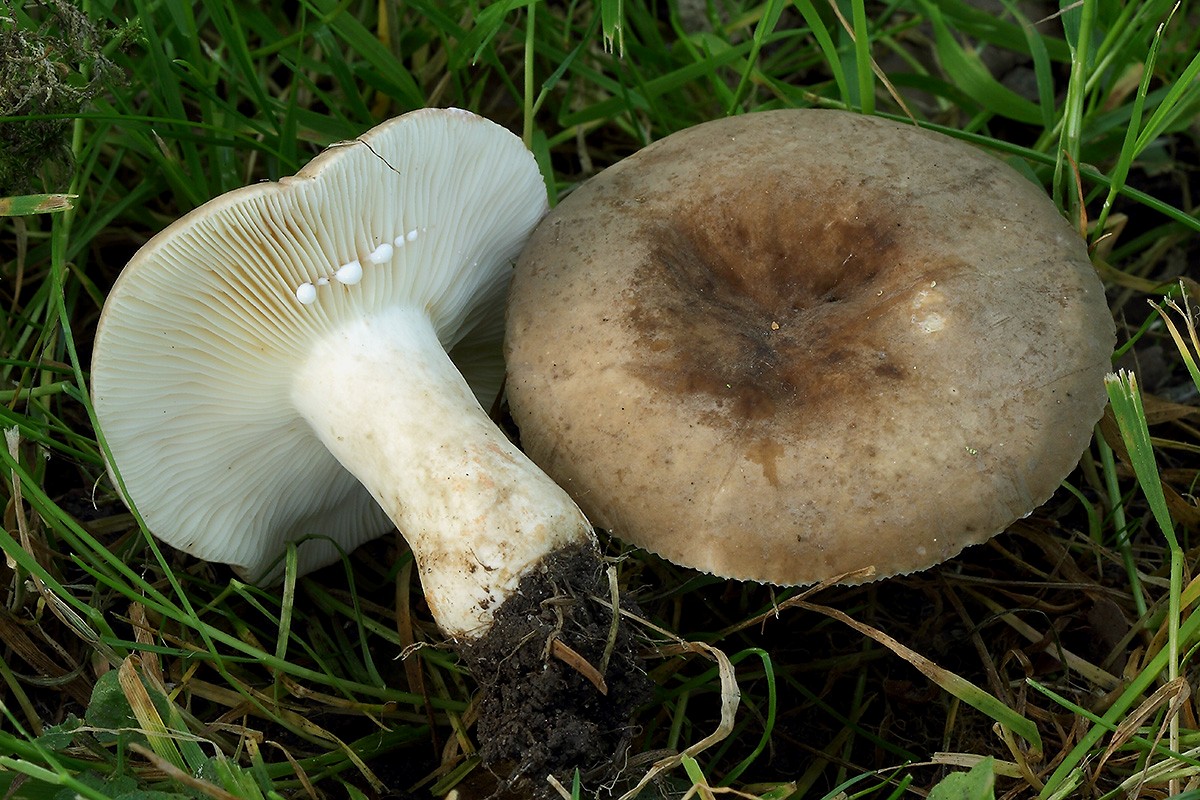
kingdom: Fungi
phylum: Basidiomycota
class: Agaricomycetes
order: Russulales
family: Russulaceae
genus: Lactarius
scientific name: Lactarius azonites
